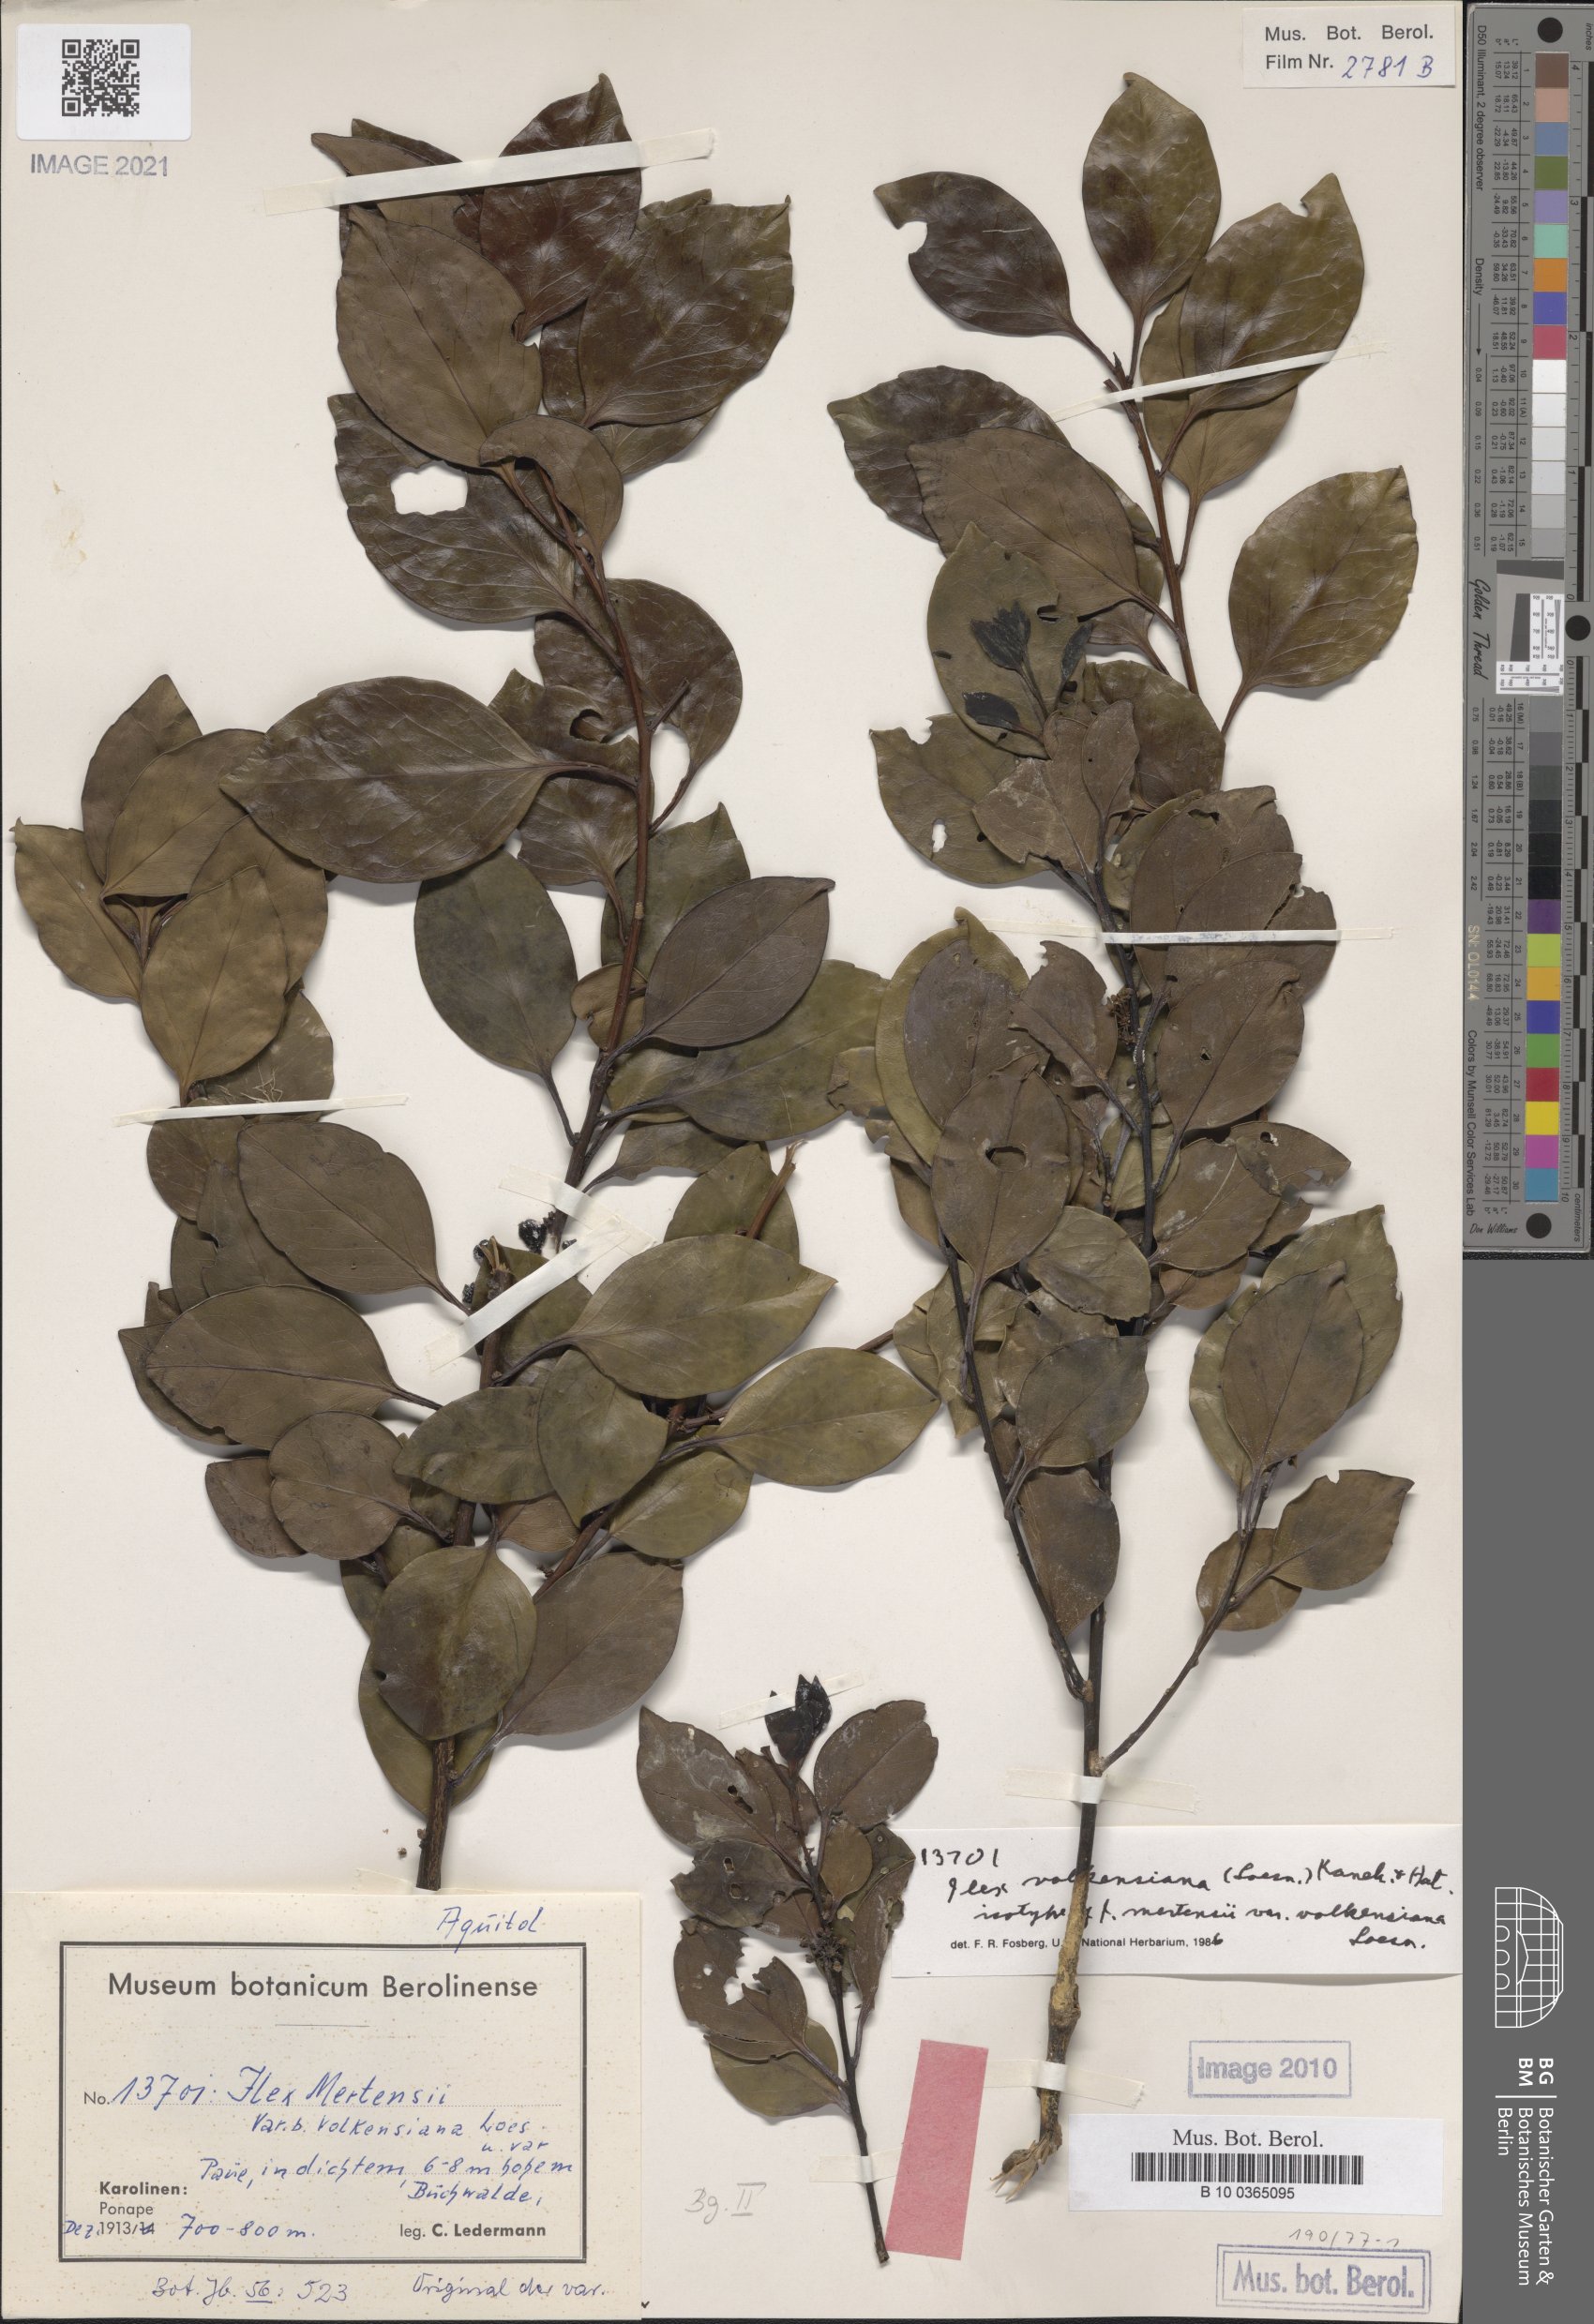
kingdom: Plantae
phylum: Tracheophyta
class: Magnoliopsida
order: Aquifoliales
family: Aquifoliaceae
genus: Ilex
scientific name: Ilex volkensiana
